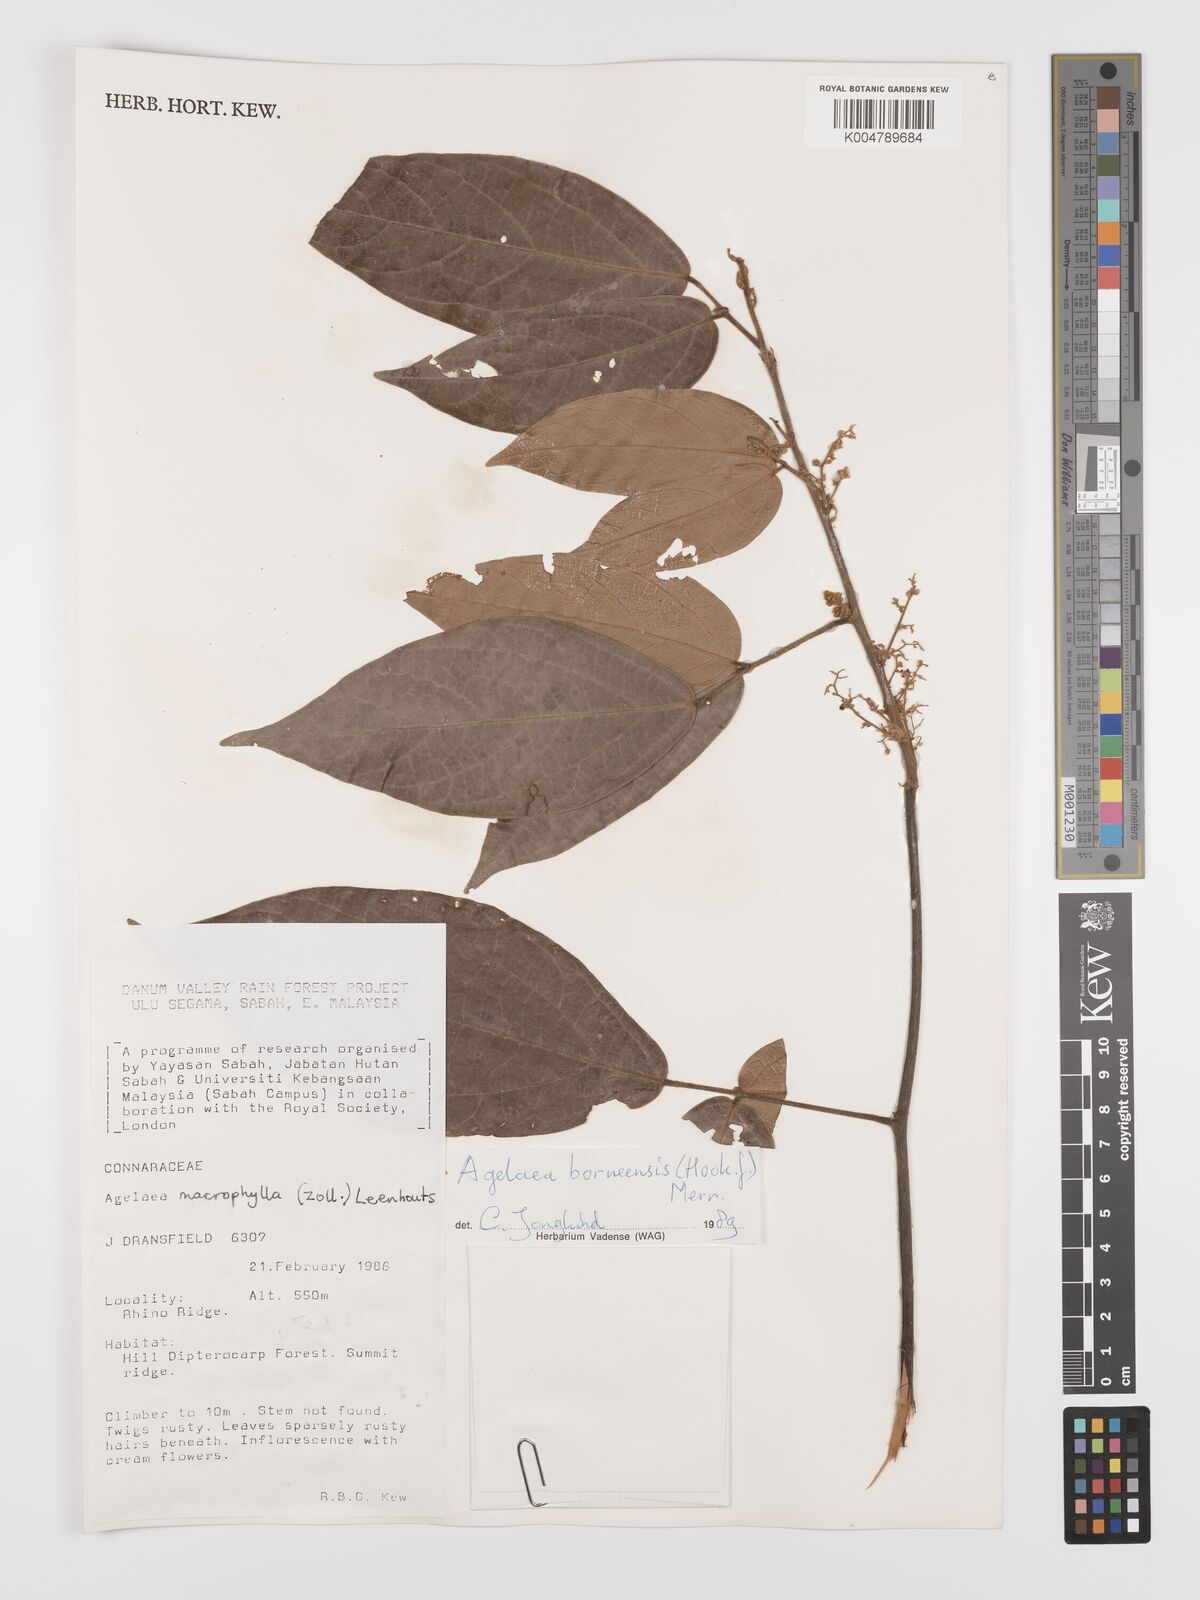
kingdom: Plantae
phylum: Tracheophyta
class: Magnoliopsida
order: Oxalidales
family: Connaraceae
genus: Agelaea
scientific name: Agelaea borneensis
